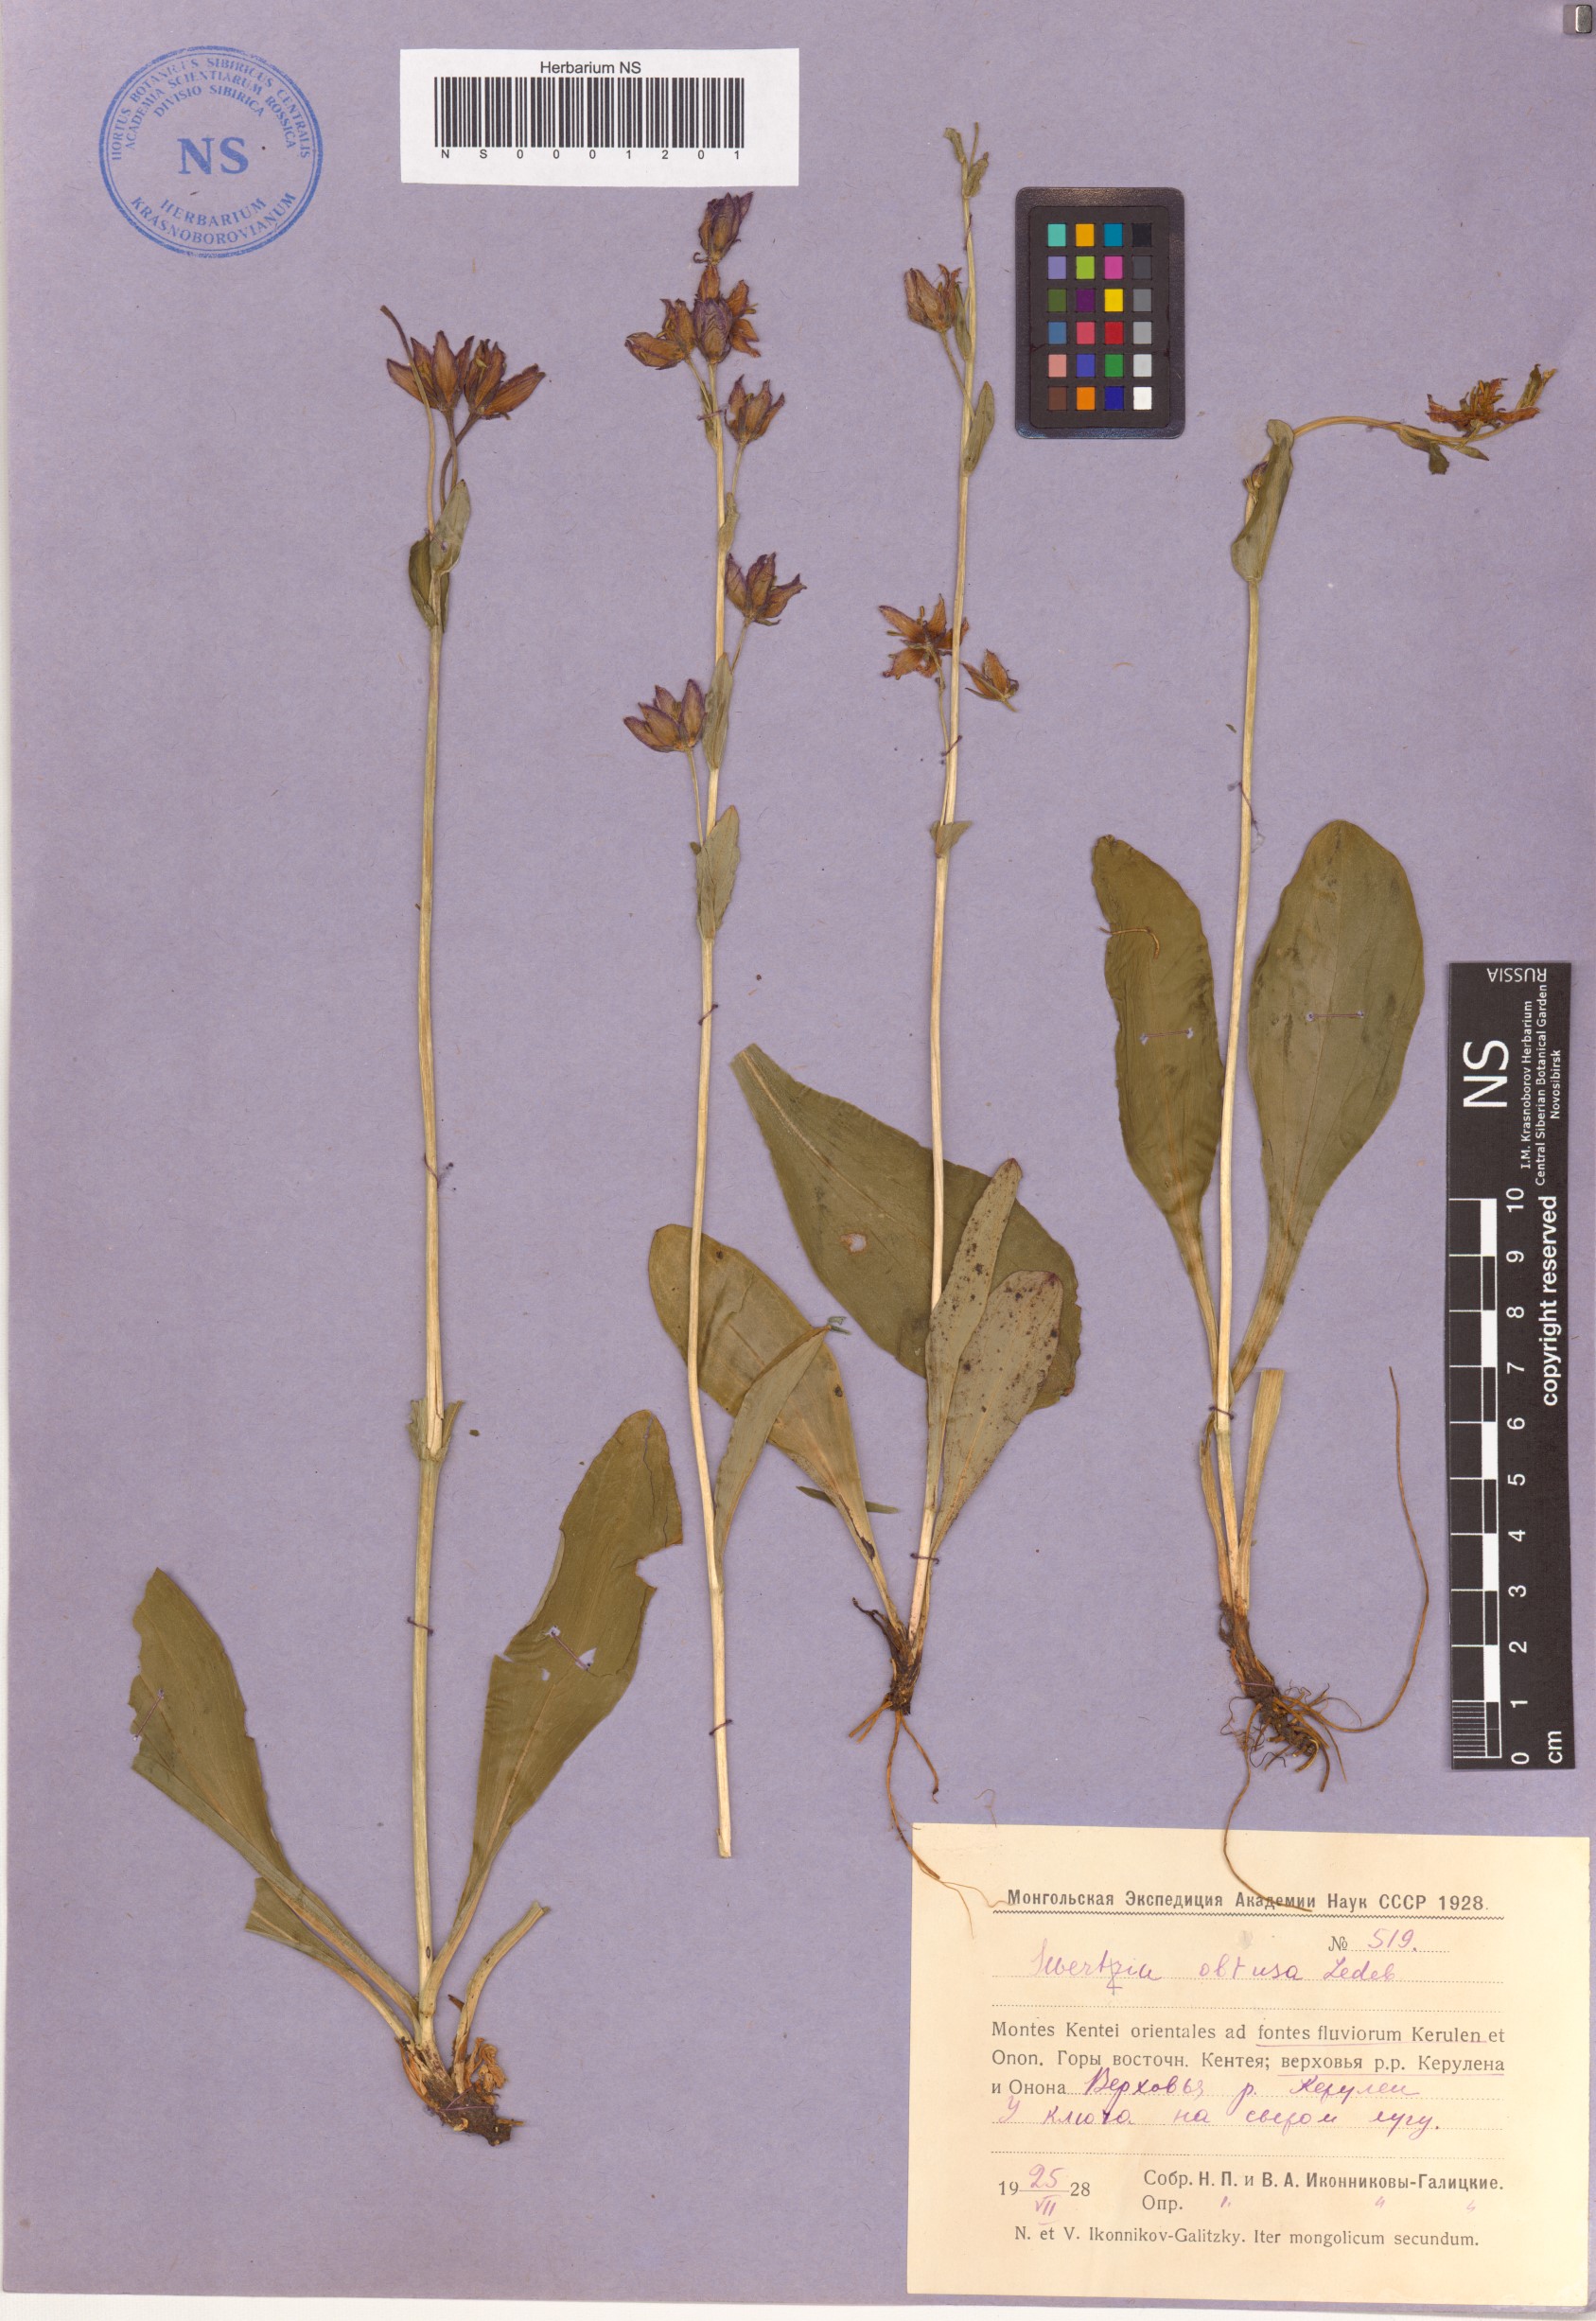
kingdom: Plantae
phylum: Tracheophyta
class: Magnoliopsida
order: Gentianales
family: Gentianaceae
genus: Swertia
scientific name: Swertia obtusa
